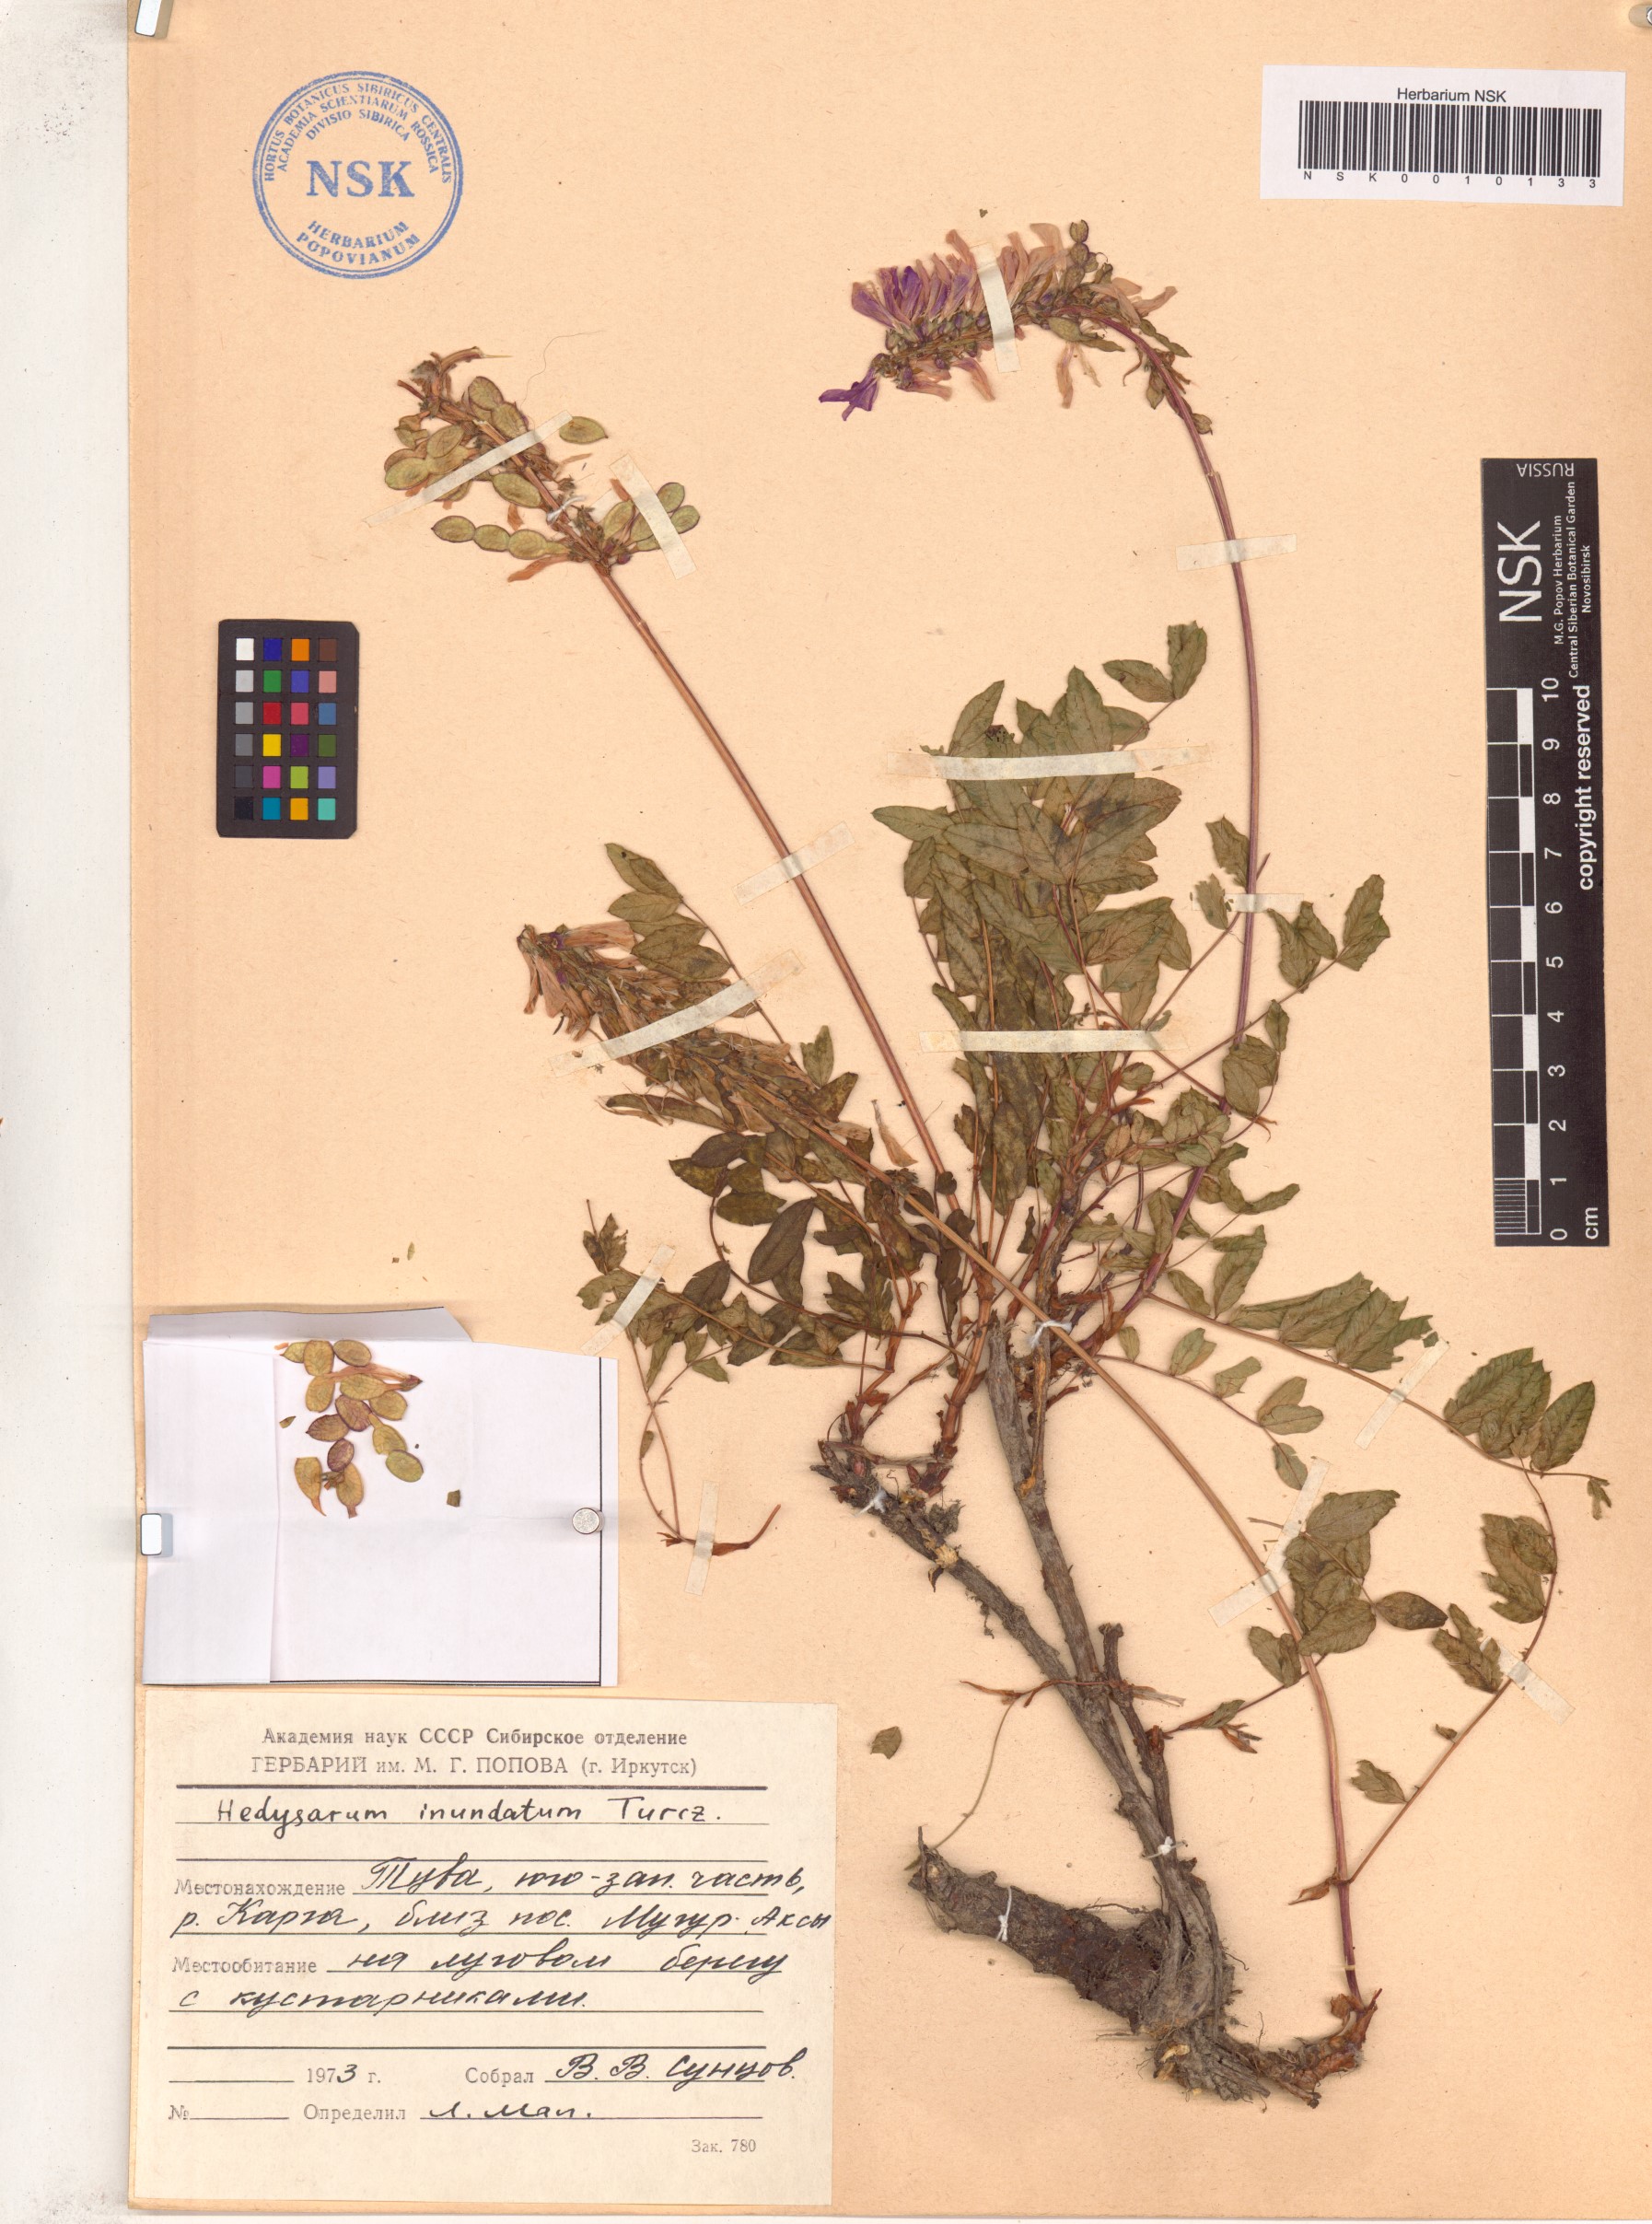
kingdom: Plantae
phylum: Tracheophyta
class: Magnoliopsida
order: Fabales
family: Fabaceae
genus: Hedysarum
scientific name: Hedysarum inundatum
